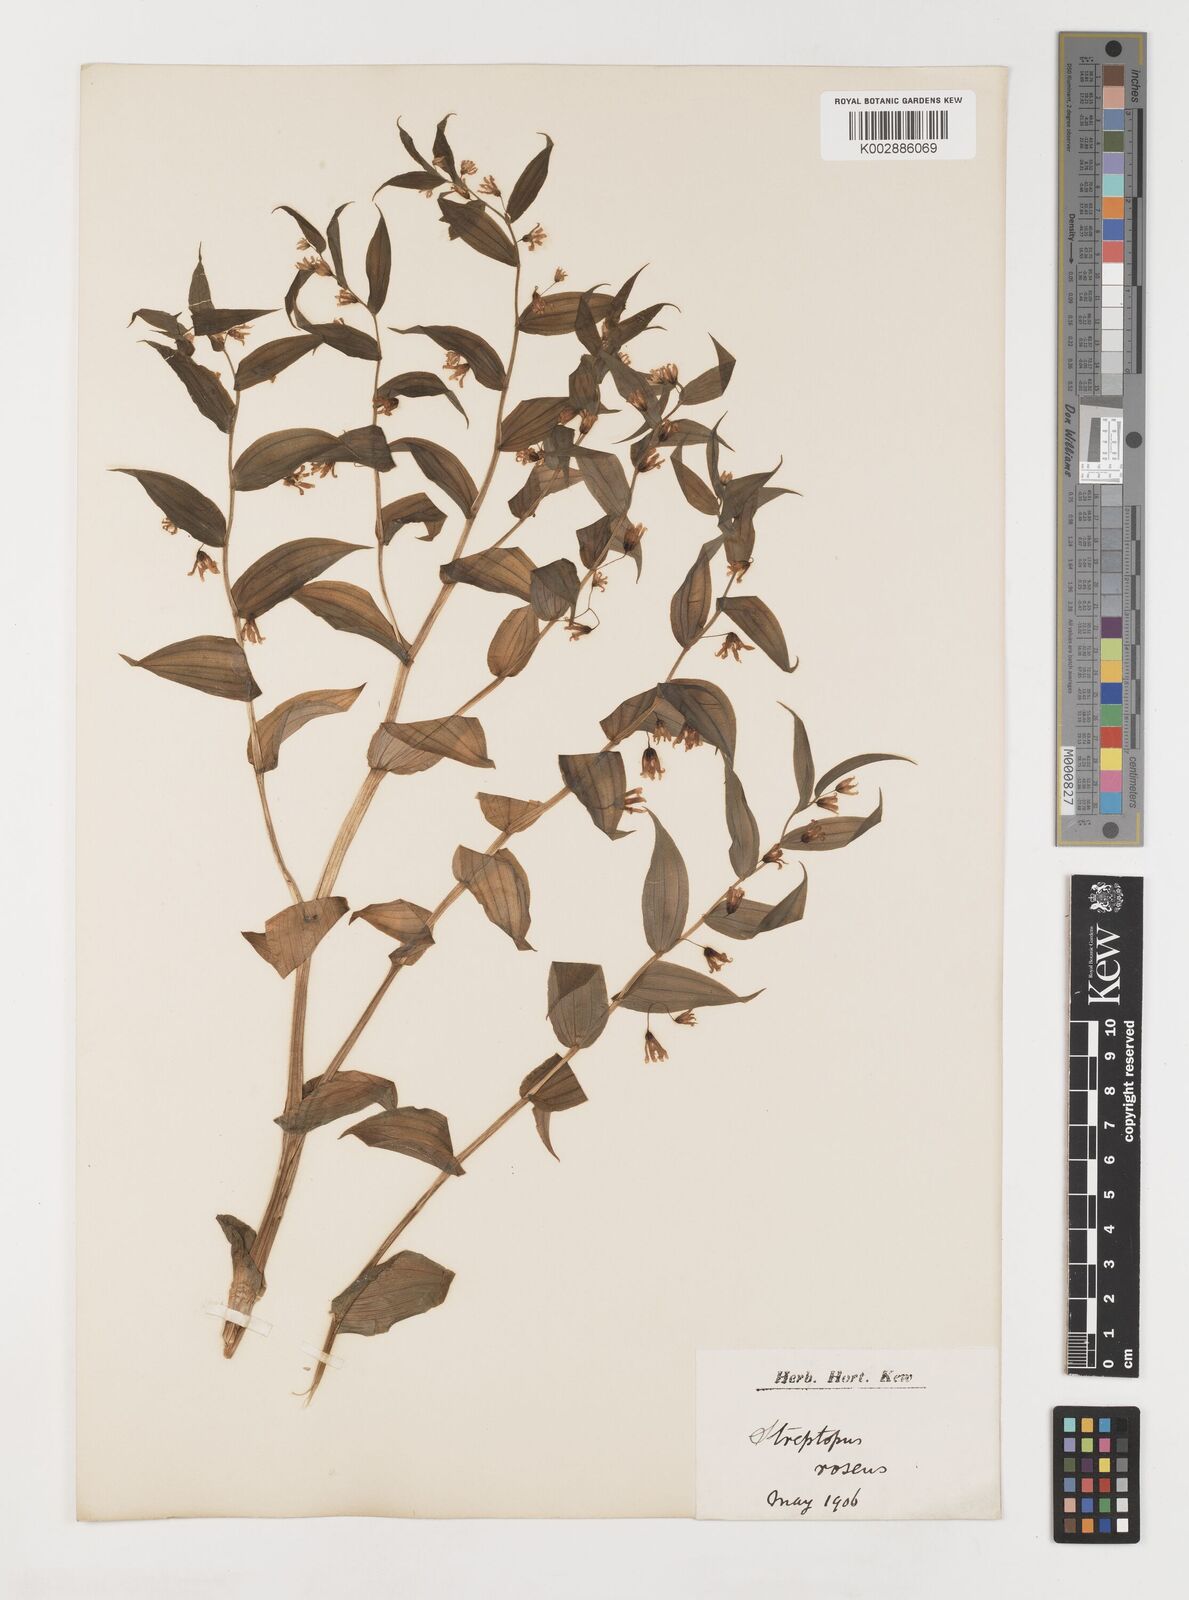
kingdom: Plantae
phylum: Tracheophyta
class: Liliopsida
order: Liliales
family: Liliaceae
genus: Streptopus
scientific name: Streptopus lanceolatus
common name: Rose mandarin
